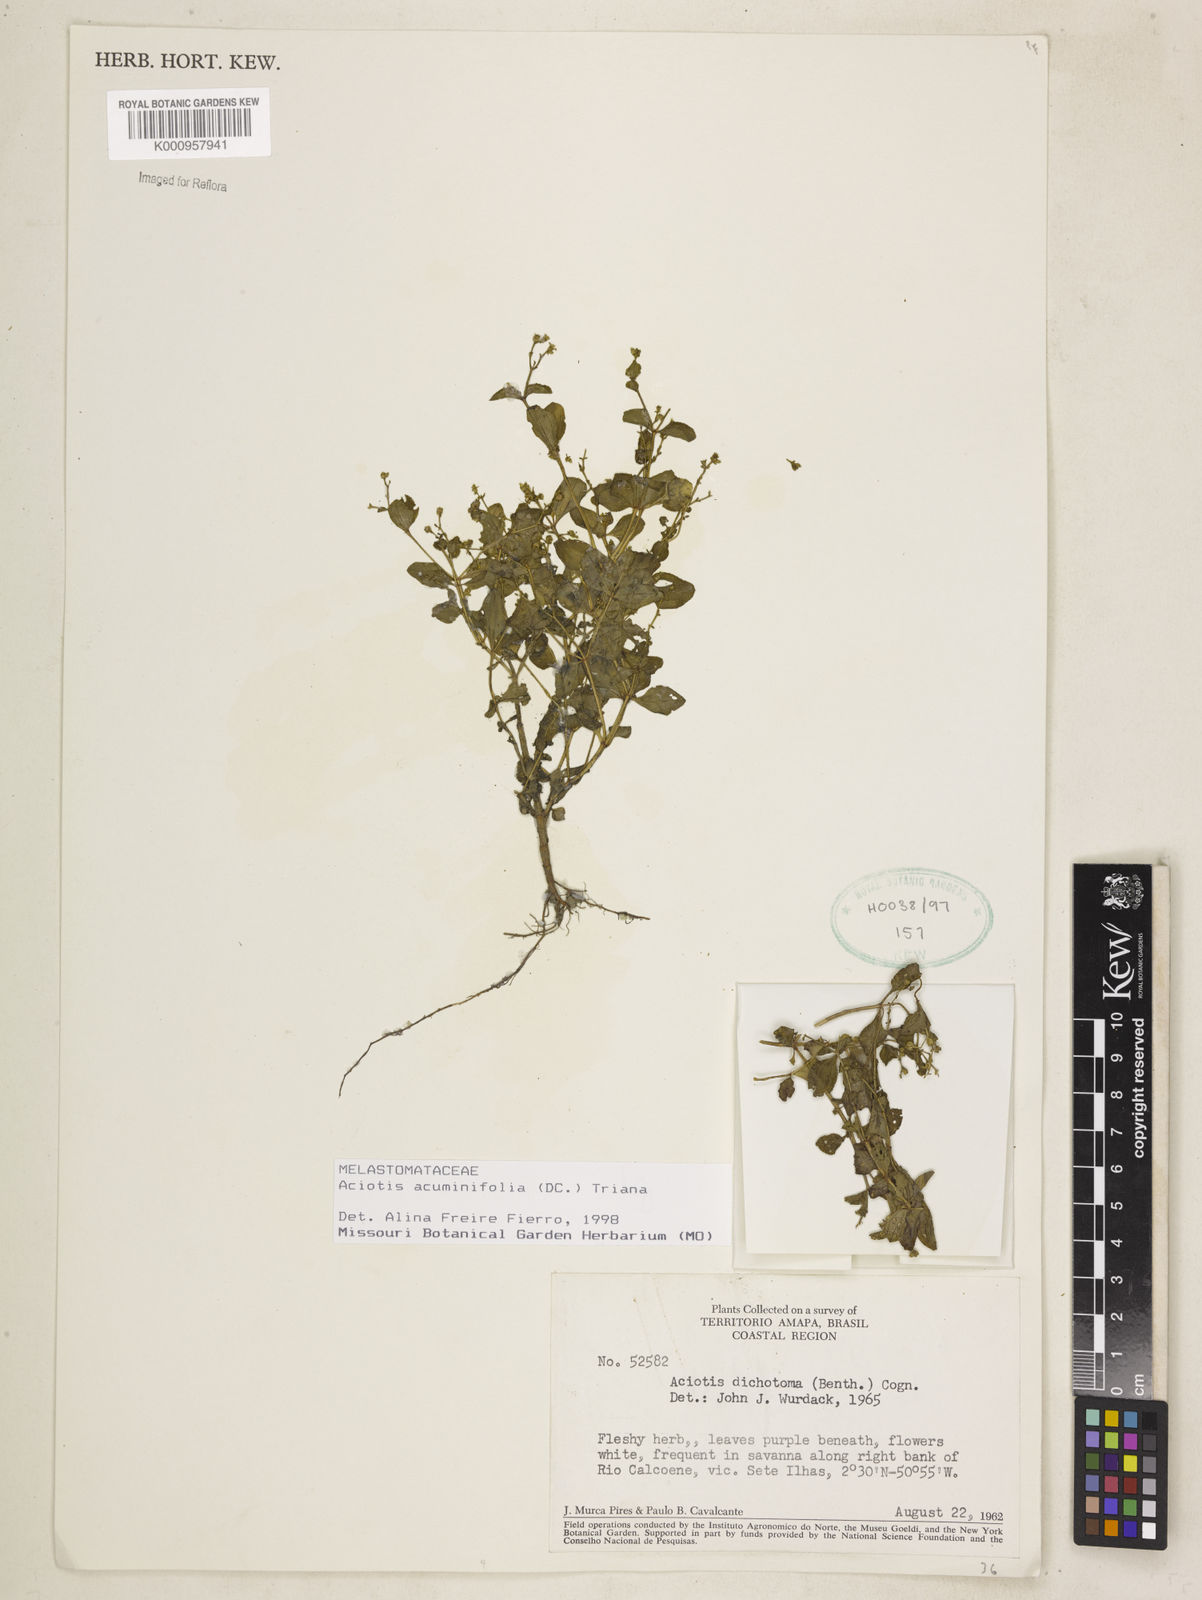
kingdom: Plantae
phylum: Tracheophyta
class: Magnoliopsida
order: Myrtales
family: Melastomataceae
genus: Aciotis
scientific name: Aciotis acuminifolia
